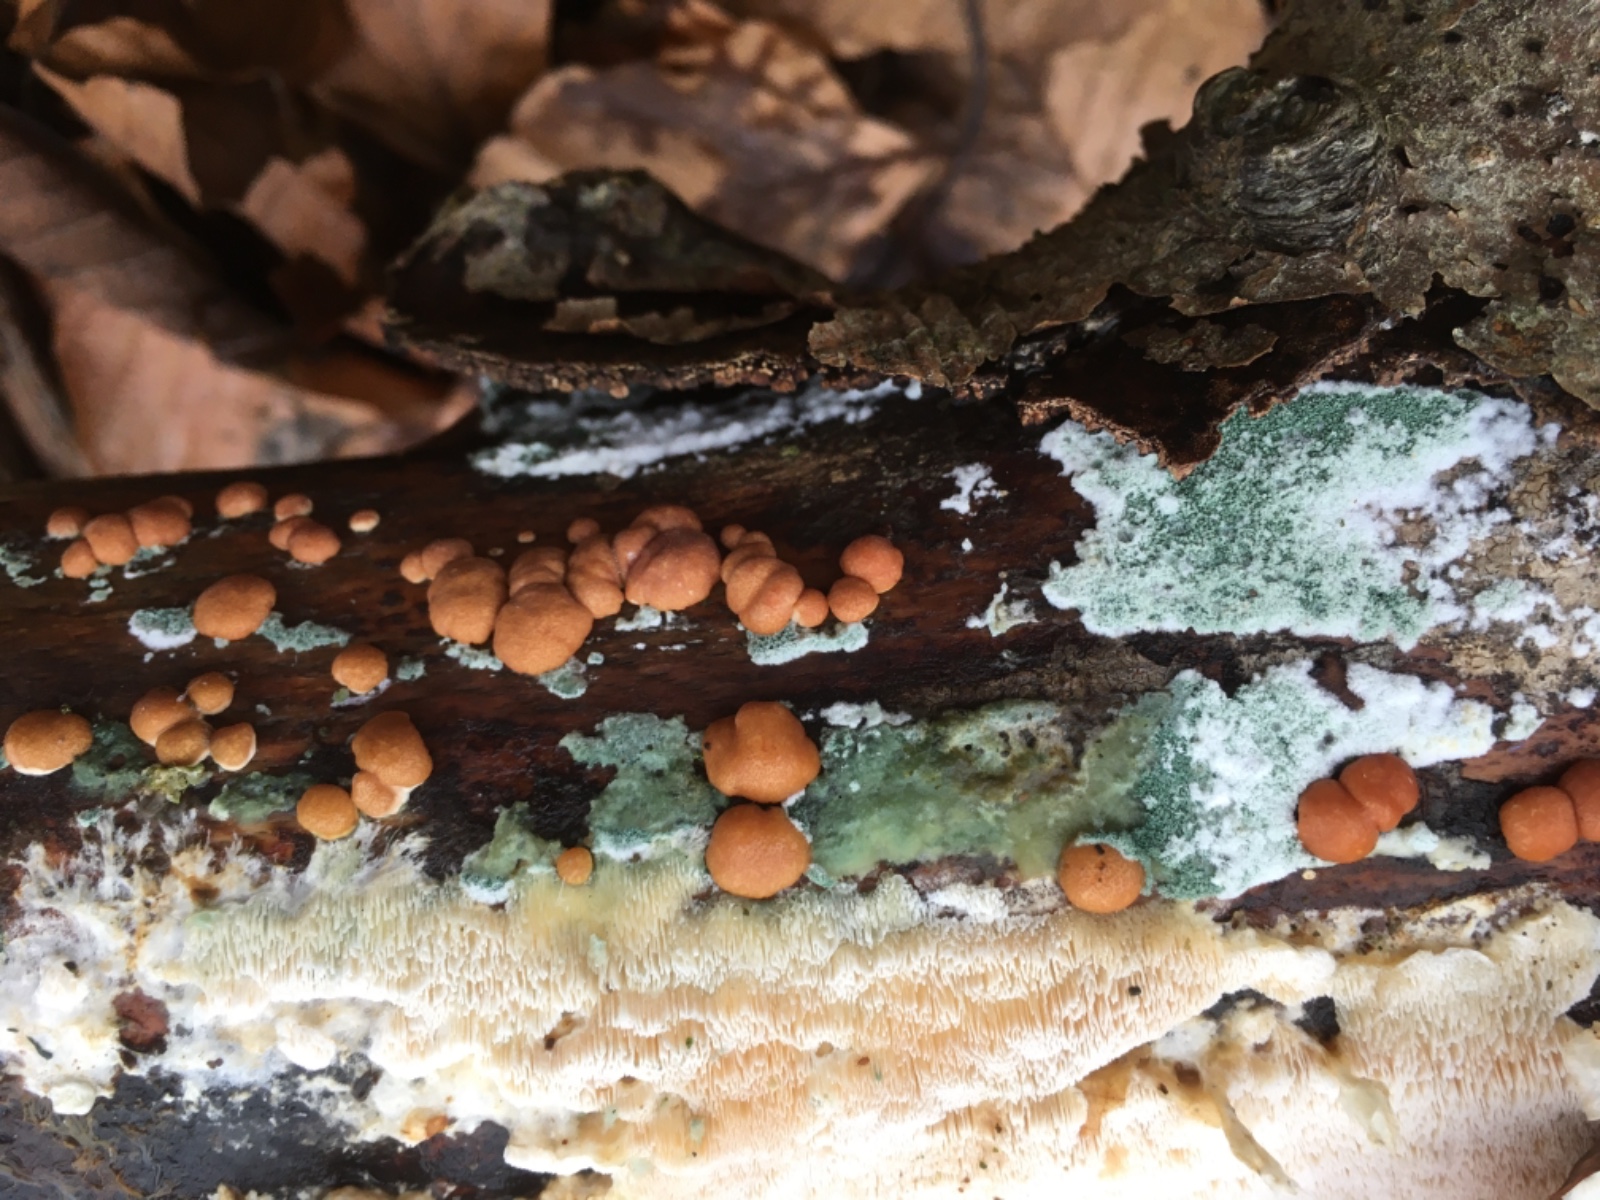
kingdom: Fungi
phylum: Ascomycota
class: Sordariomycetes
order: Hypocreales
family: Hypocreaceae
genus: Trichoderma
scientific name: Trichoderma europaeum
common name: rosabrun kødkerne
